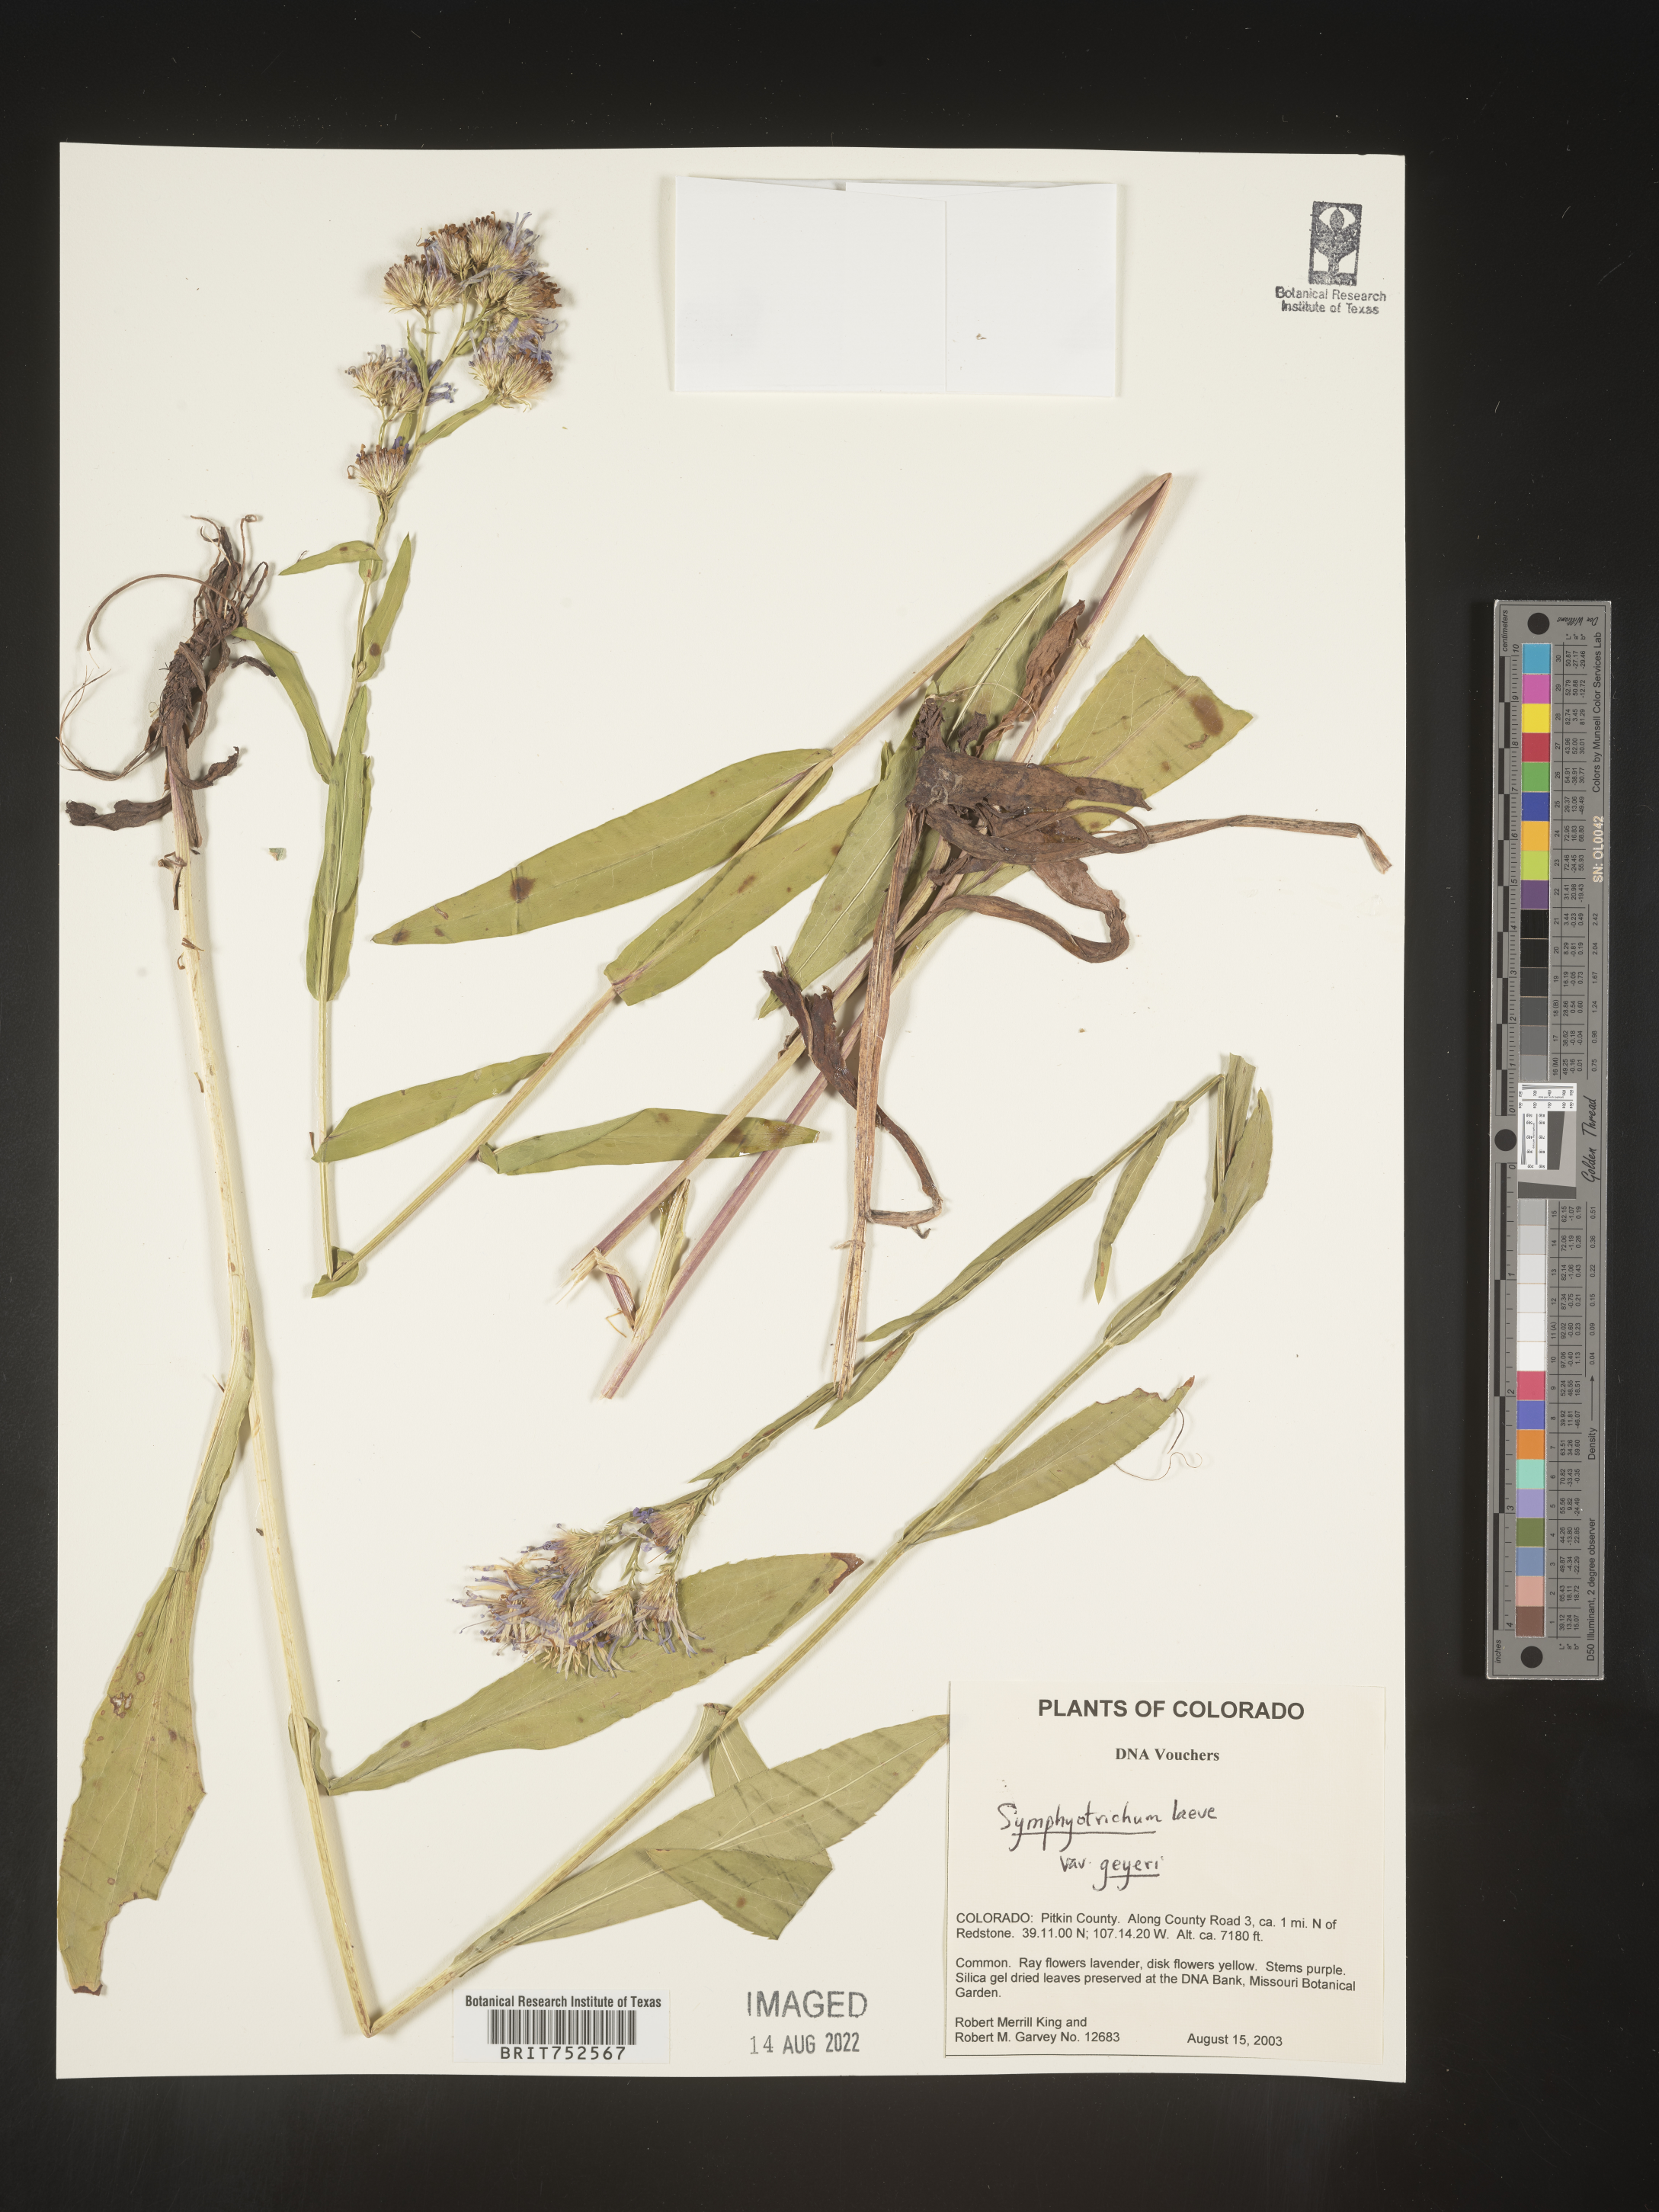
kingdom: Plantae
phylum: Tracheophyta
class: Magnoliopsida
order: Asterales
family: Asteraceae
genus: Symphyotrichum
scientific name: Symphyotrichum laeve
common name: Glaucous aster
